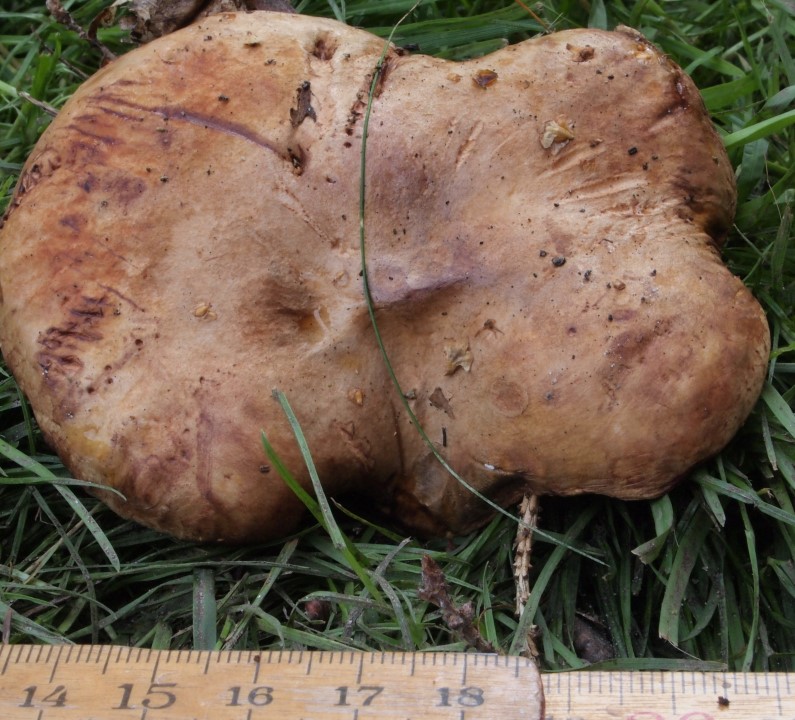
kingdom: Fungi
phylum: Basidiomycota
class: Agaricomycetes
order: Boletales
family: Paxillaceae
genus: Paxillus
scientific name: Paxillus involutus
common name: almindelig netbladhat
